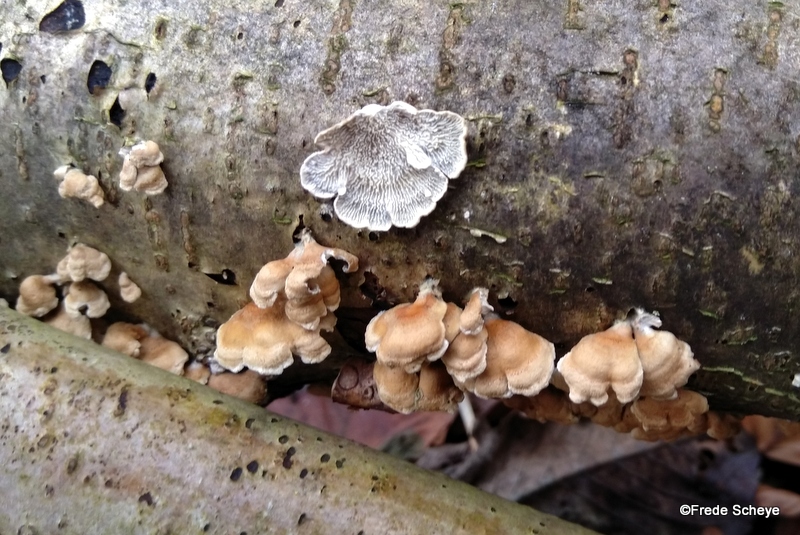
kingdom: Fungi
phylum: Basidiomycota
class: Agaricomycetes
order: Amylocorticiales
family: Amylocorticiaceae
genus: Plicaturopsis
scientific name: Plicaturopsis crispa
